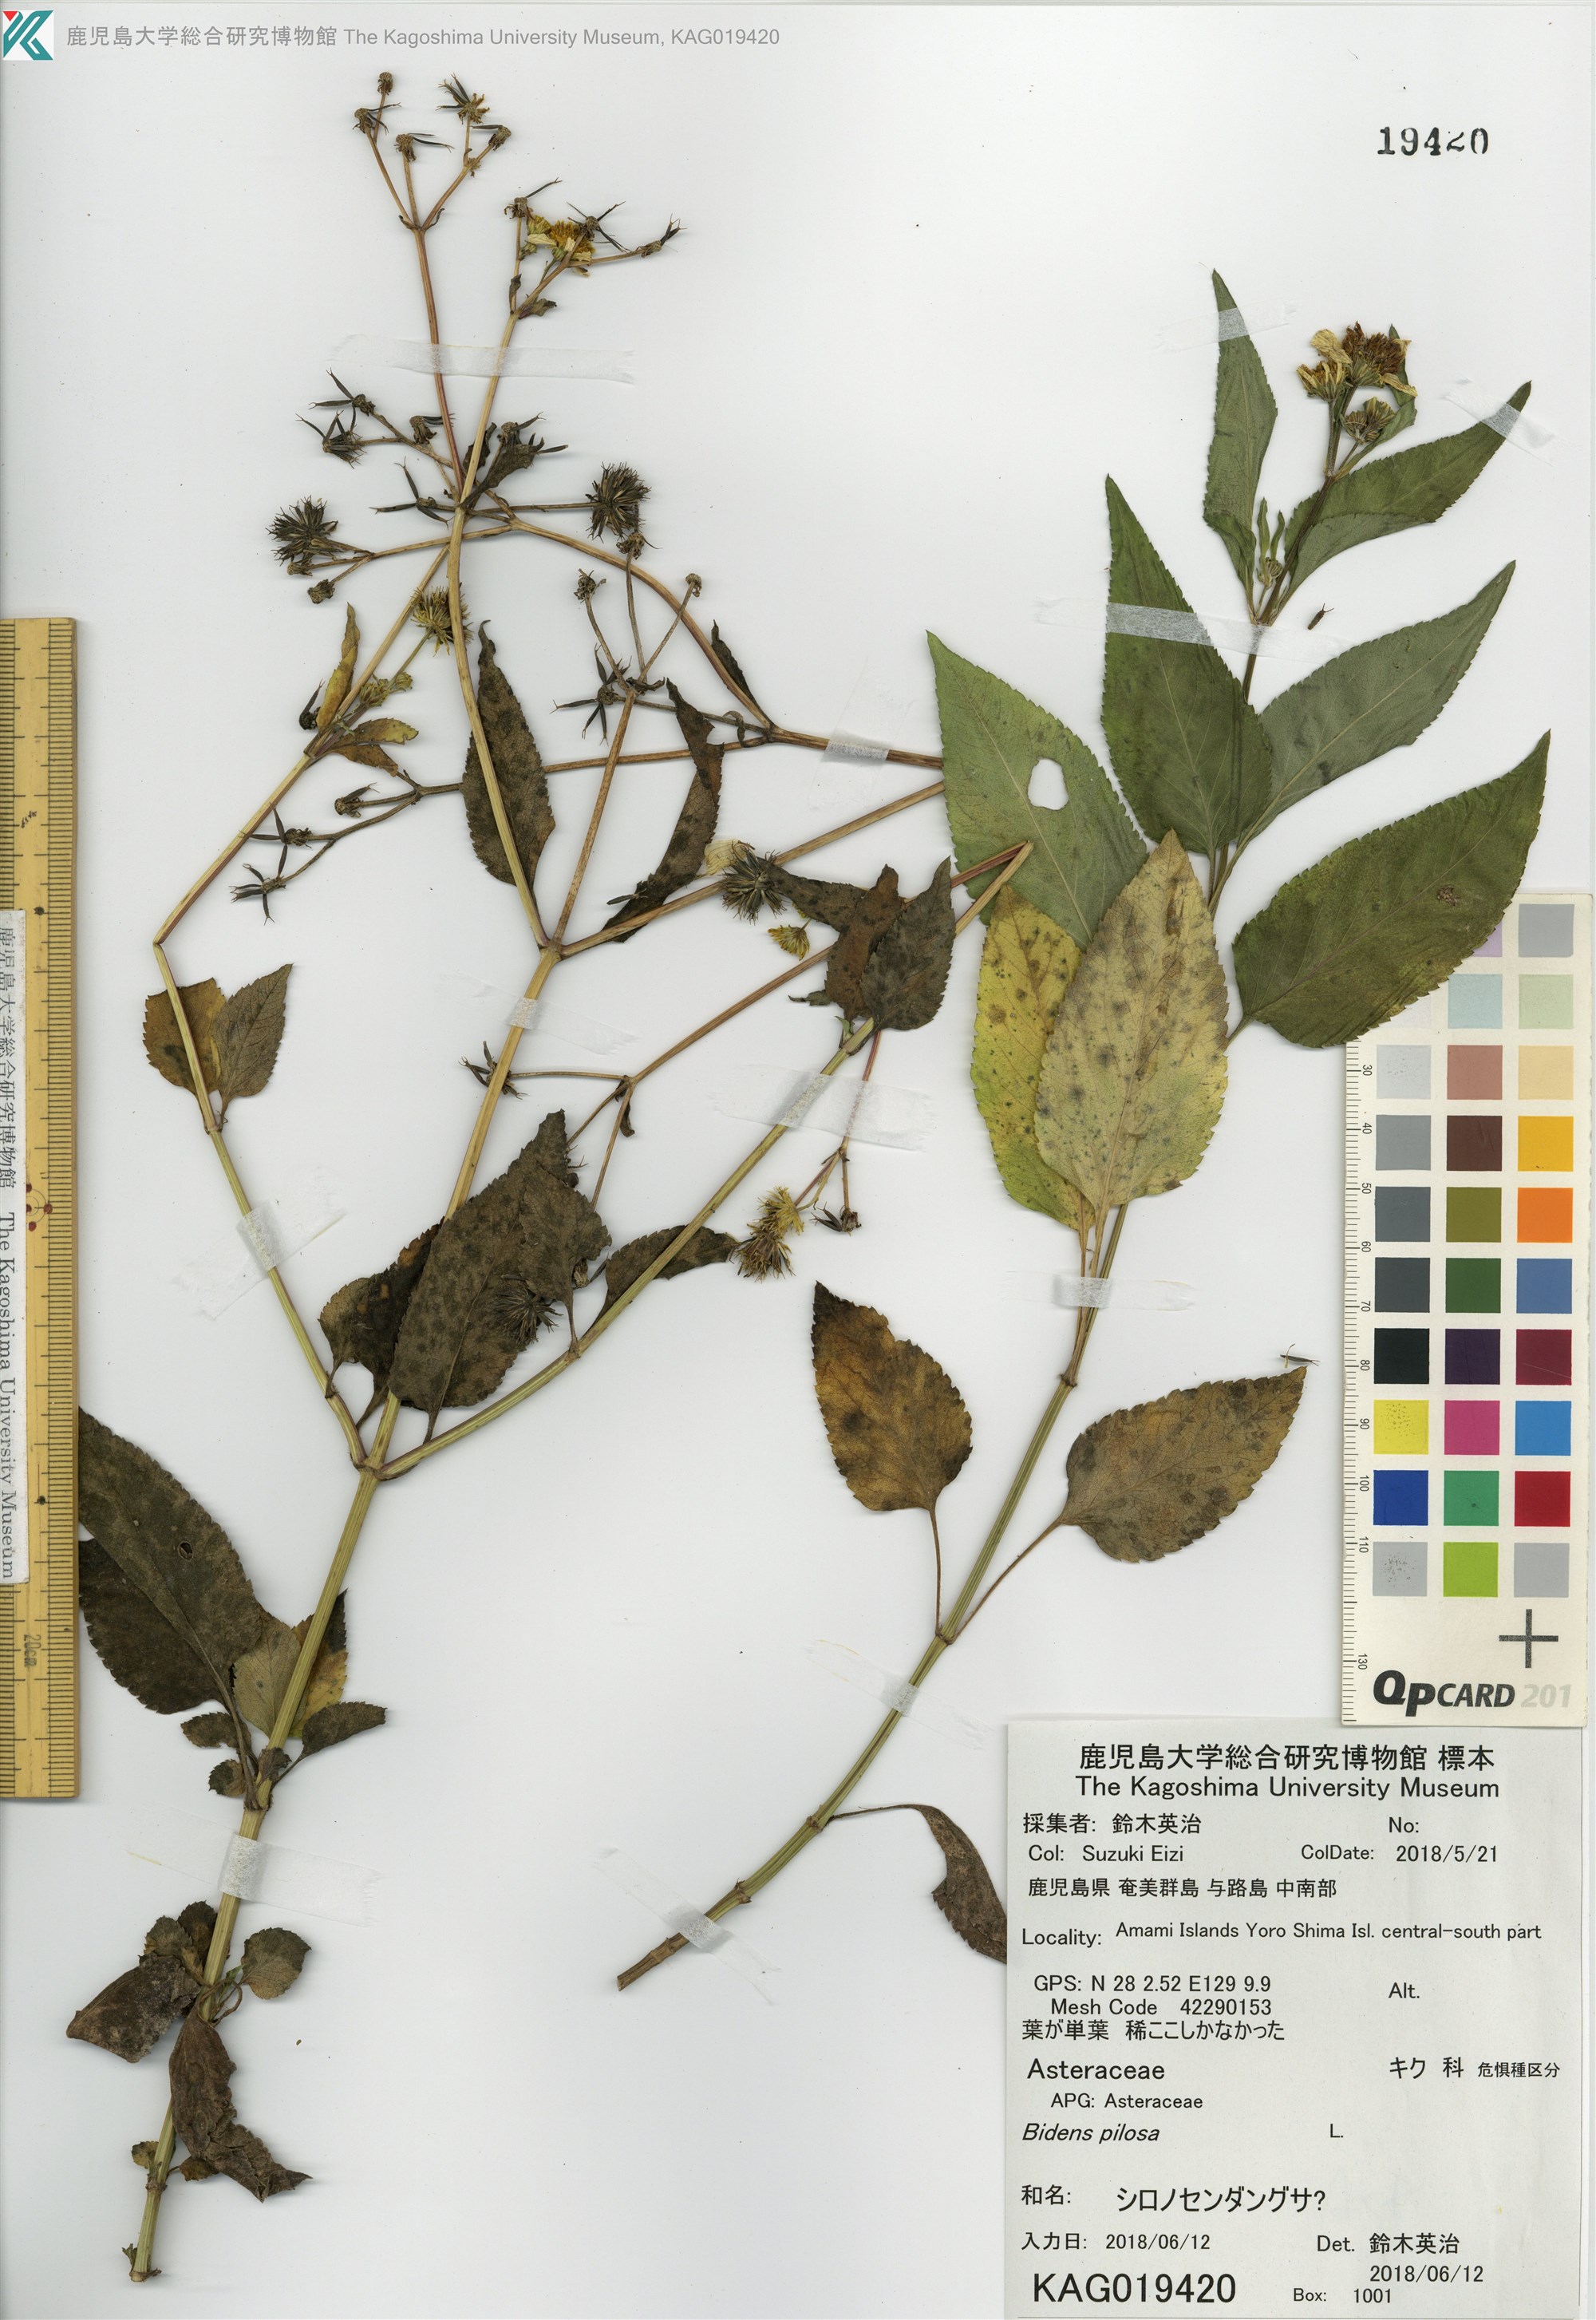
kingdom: Plantae
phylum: Tracheophyta
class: Magnoliopsida
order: Asterales
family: Asteraceae
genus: Bidens
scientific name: Bidens pilosa
